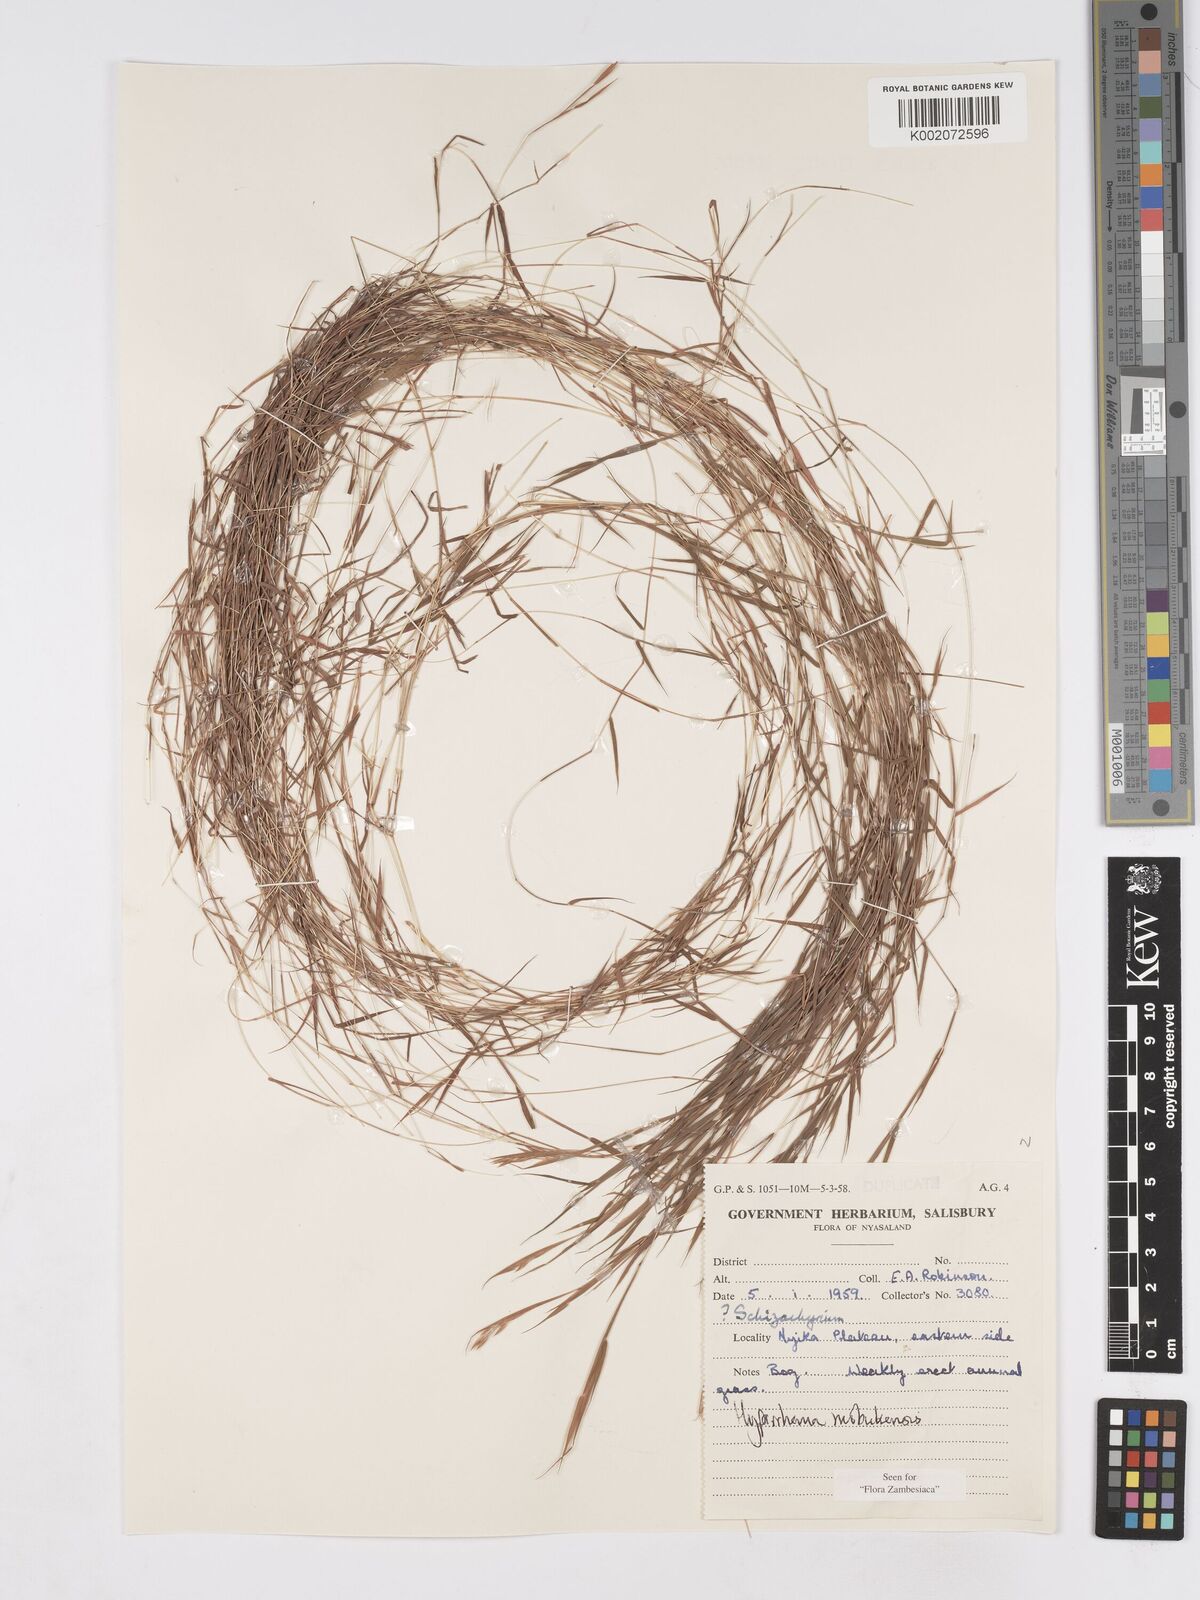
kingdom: Plantae
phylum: Tracheophyta
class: Liliopsida
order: Poales
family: Poaceae
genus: Hyparrhenia
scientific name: Hyparrhenia mobukensis
